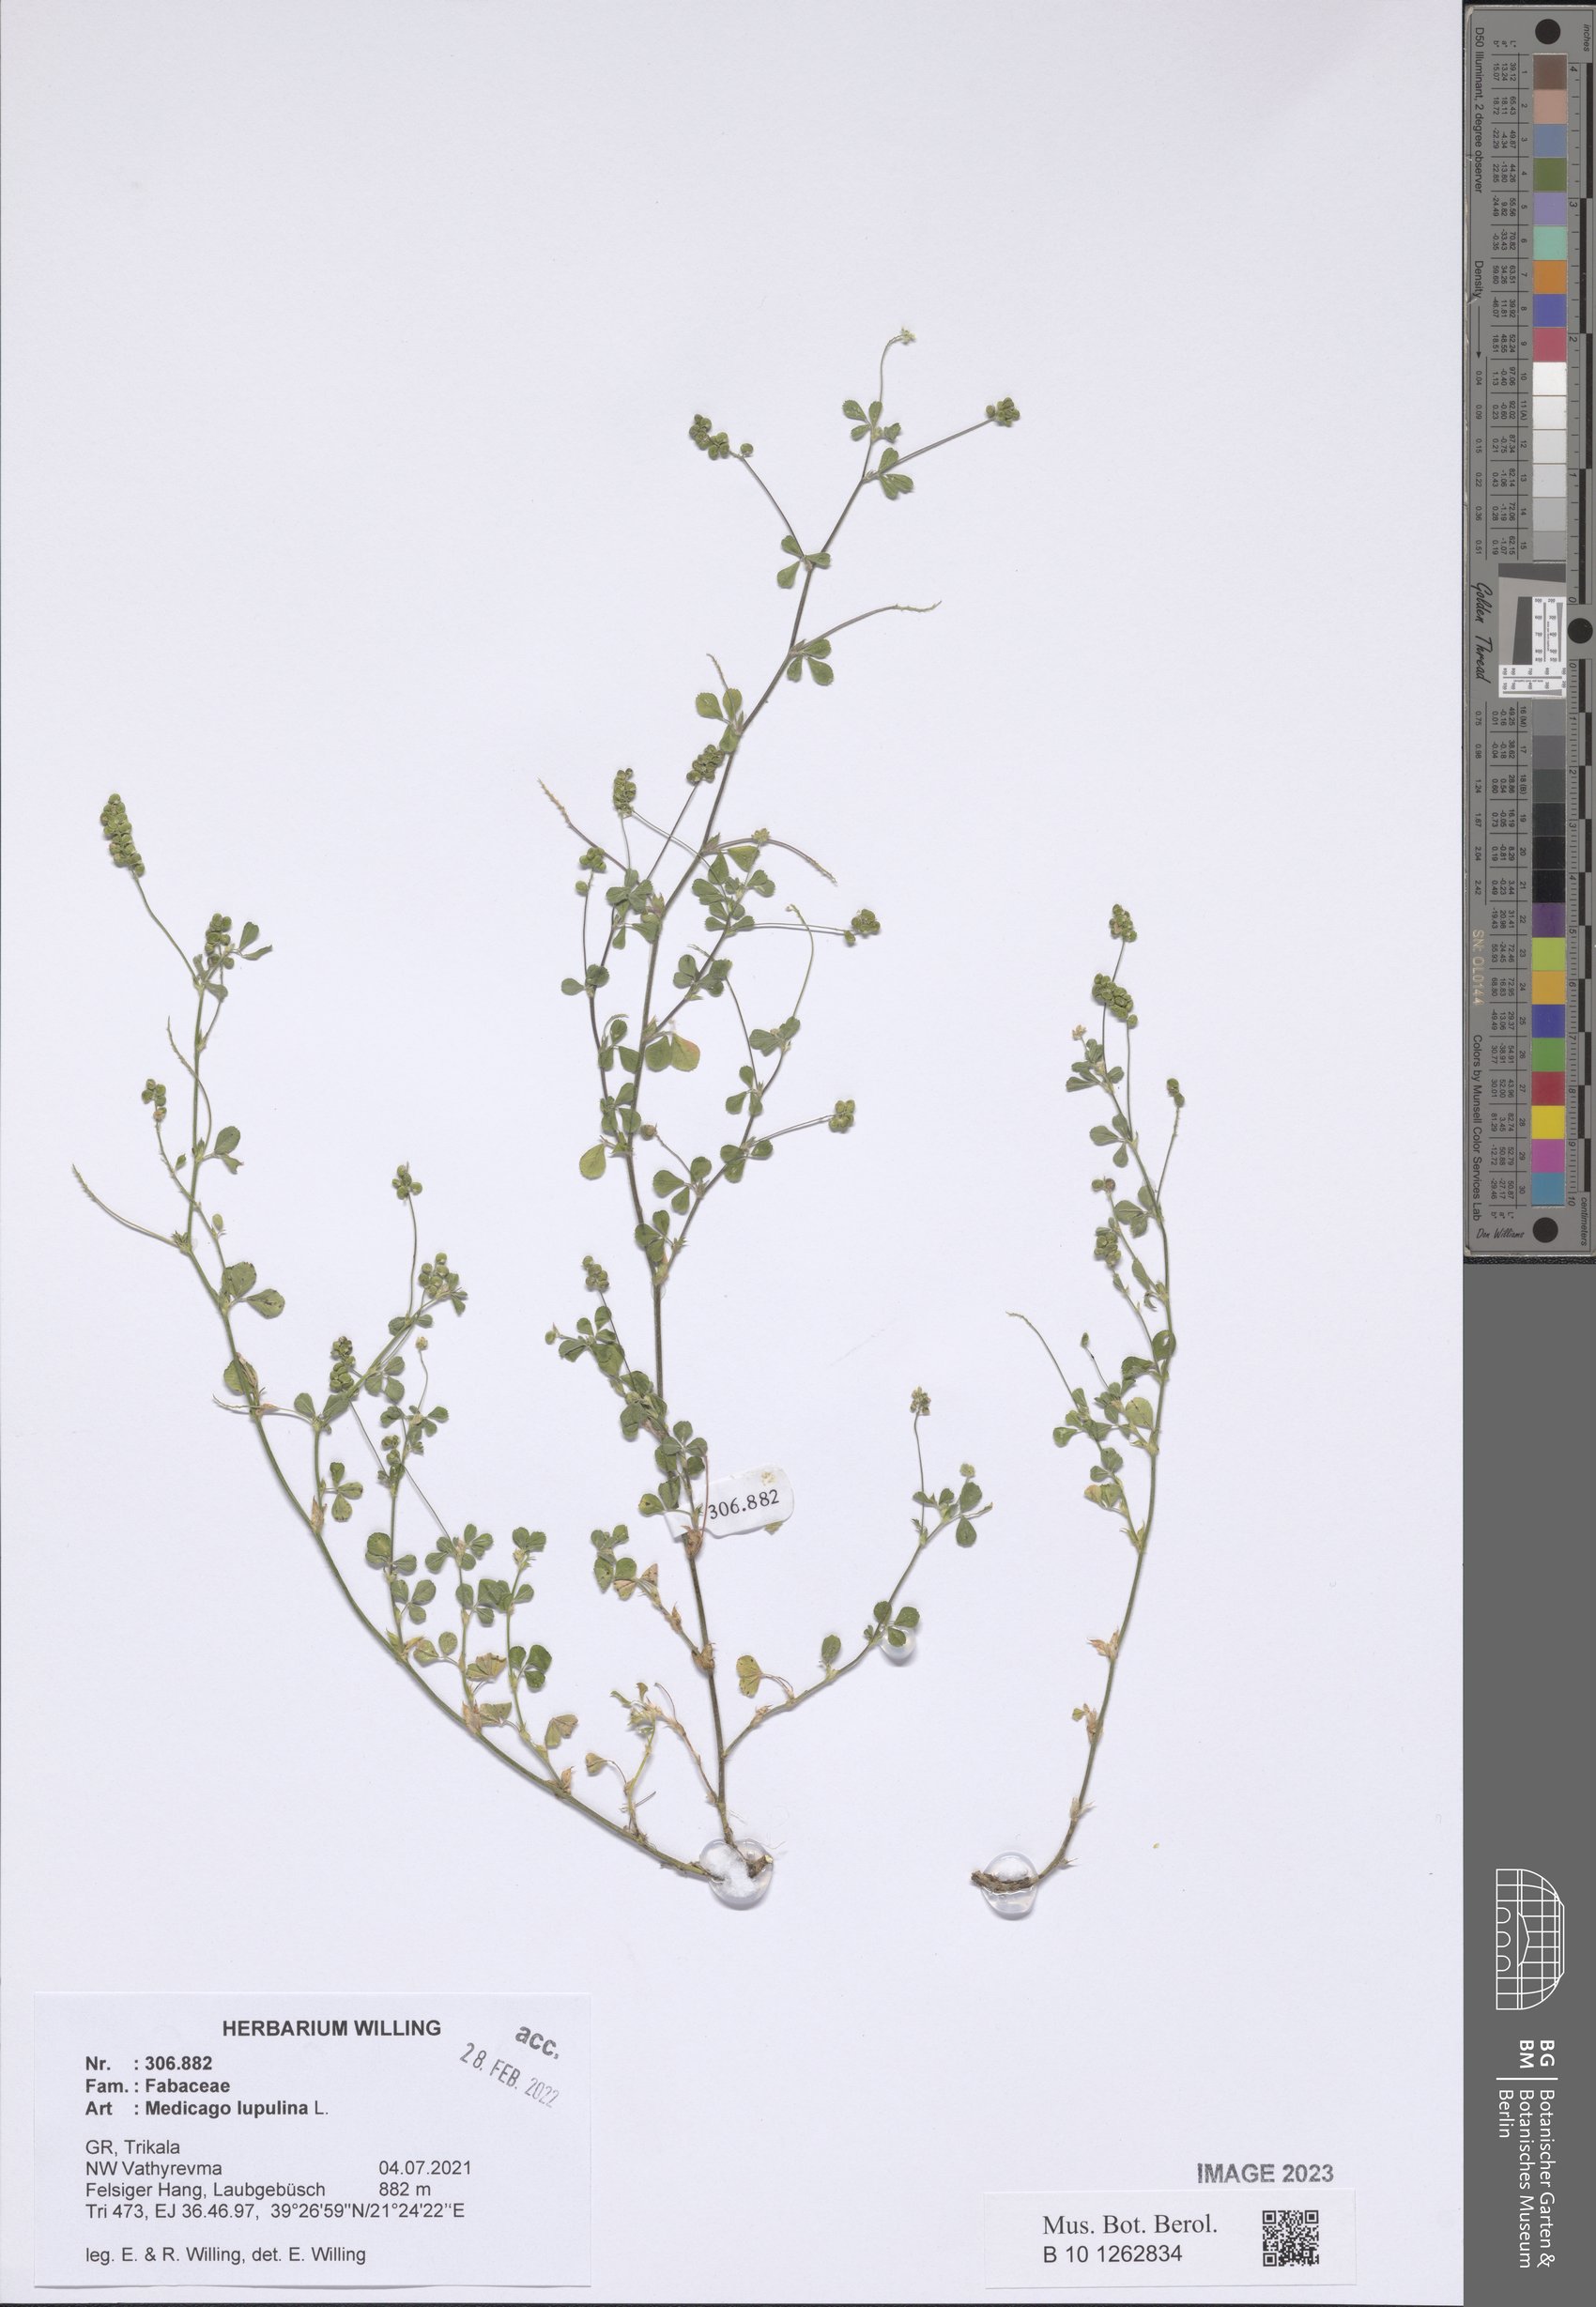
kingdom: Plantae
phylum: Tracheophyta
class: Magnoliopsida
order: Fabales
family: Fabaceae
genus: Medicago
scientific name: Medicago lupulina
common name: Black medick
